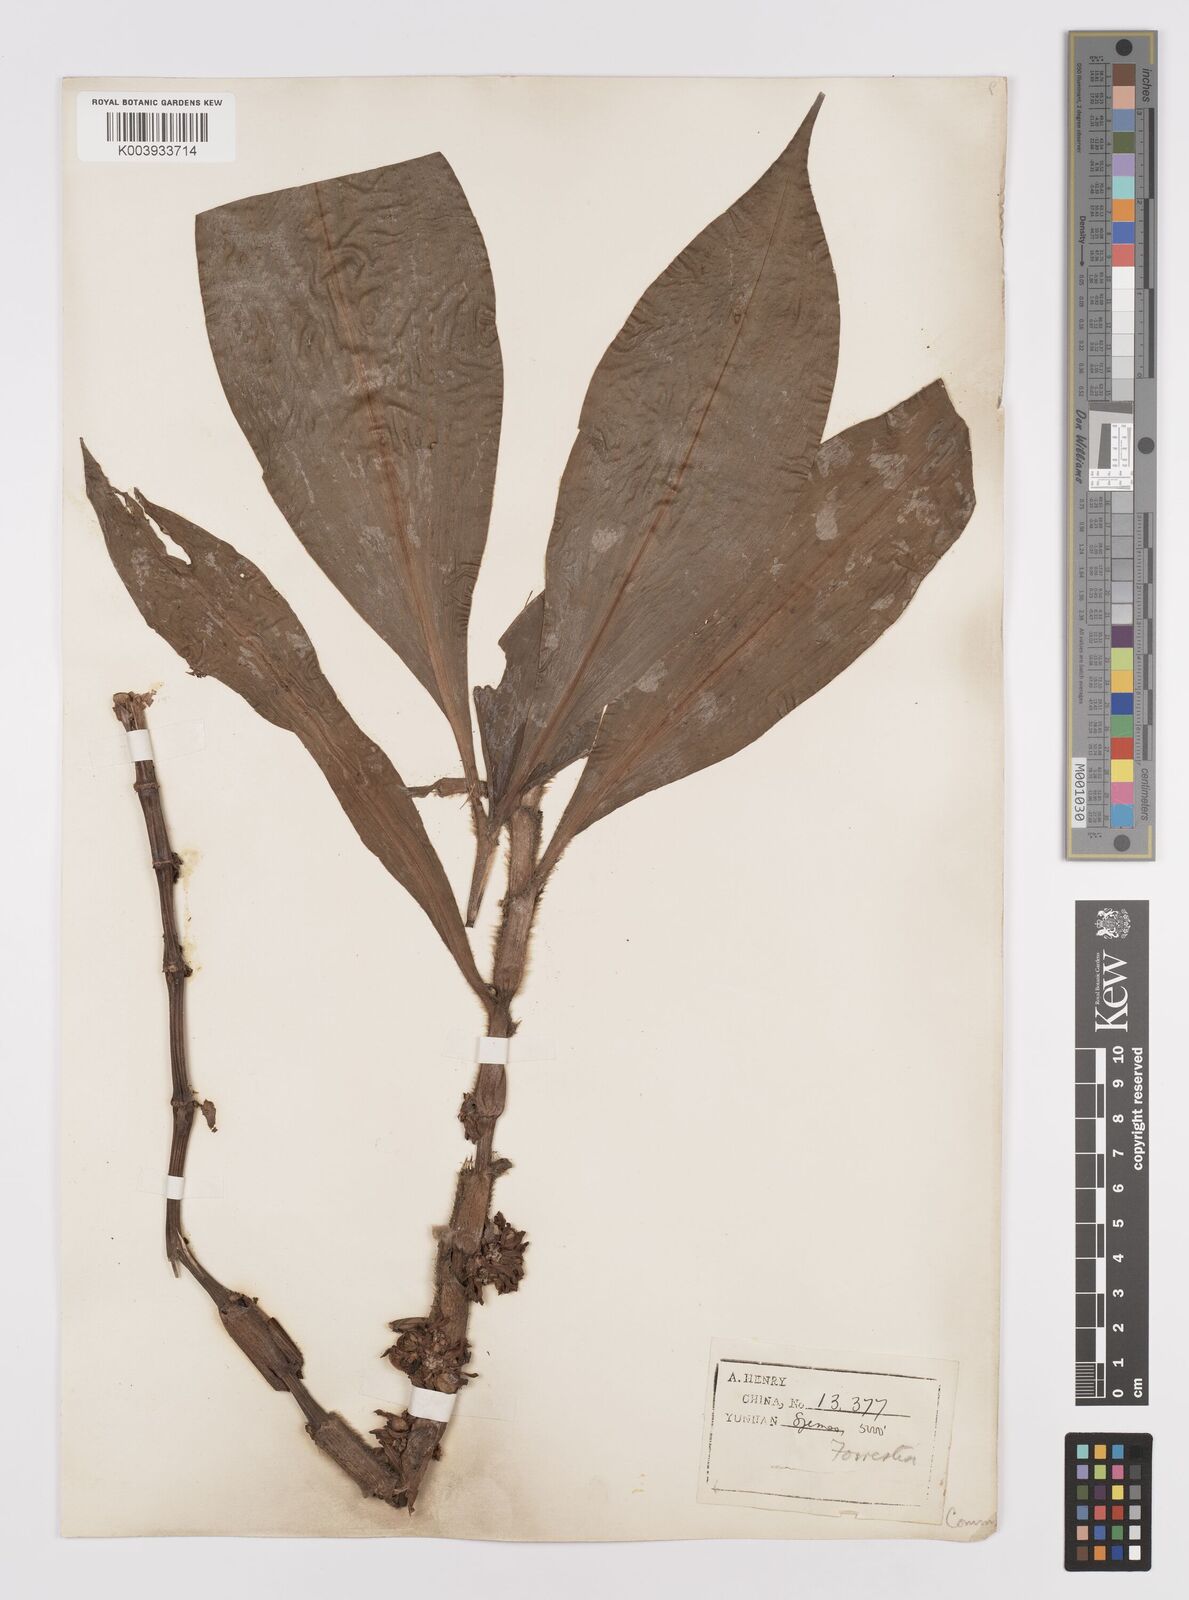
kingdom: Plantae
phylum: Tracheophyta
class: Liliopsida
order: Commelinales
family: Commelinaceae
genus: Amischotolype
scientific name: Amischotolype hispida
